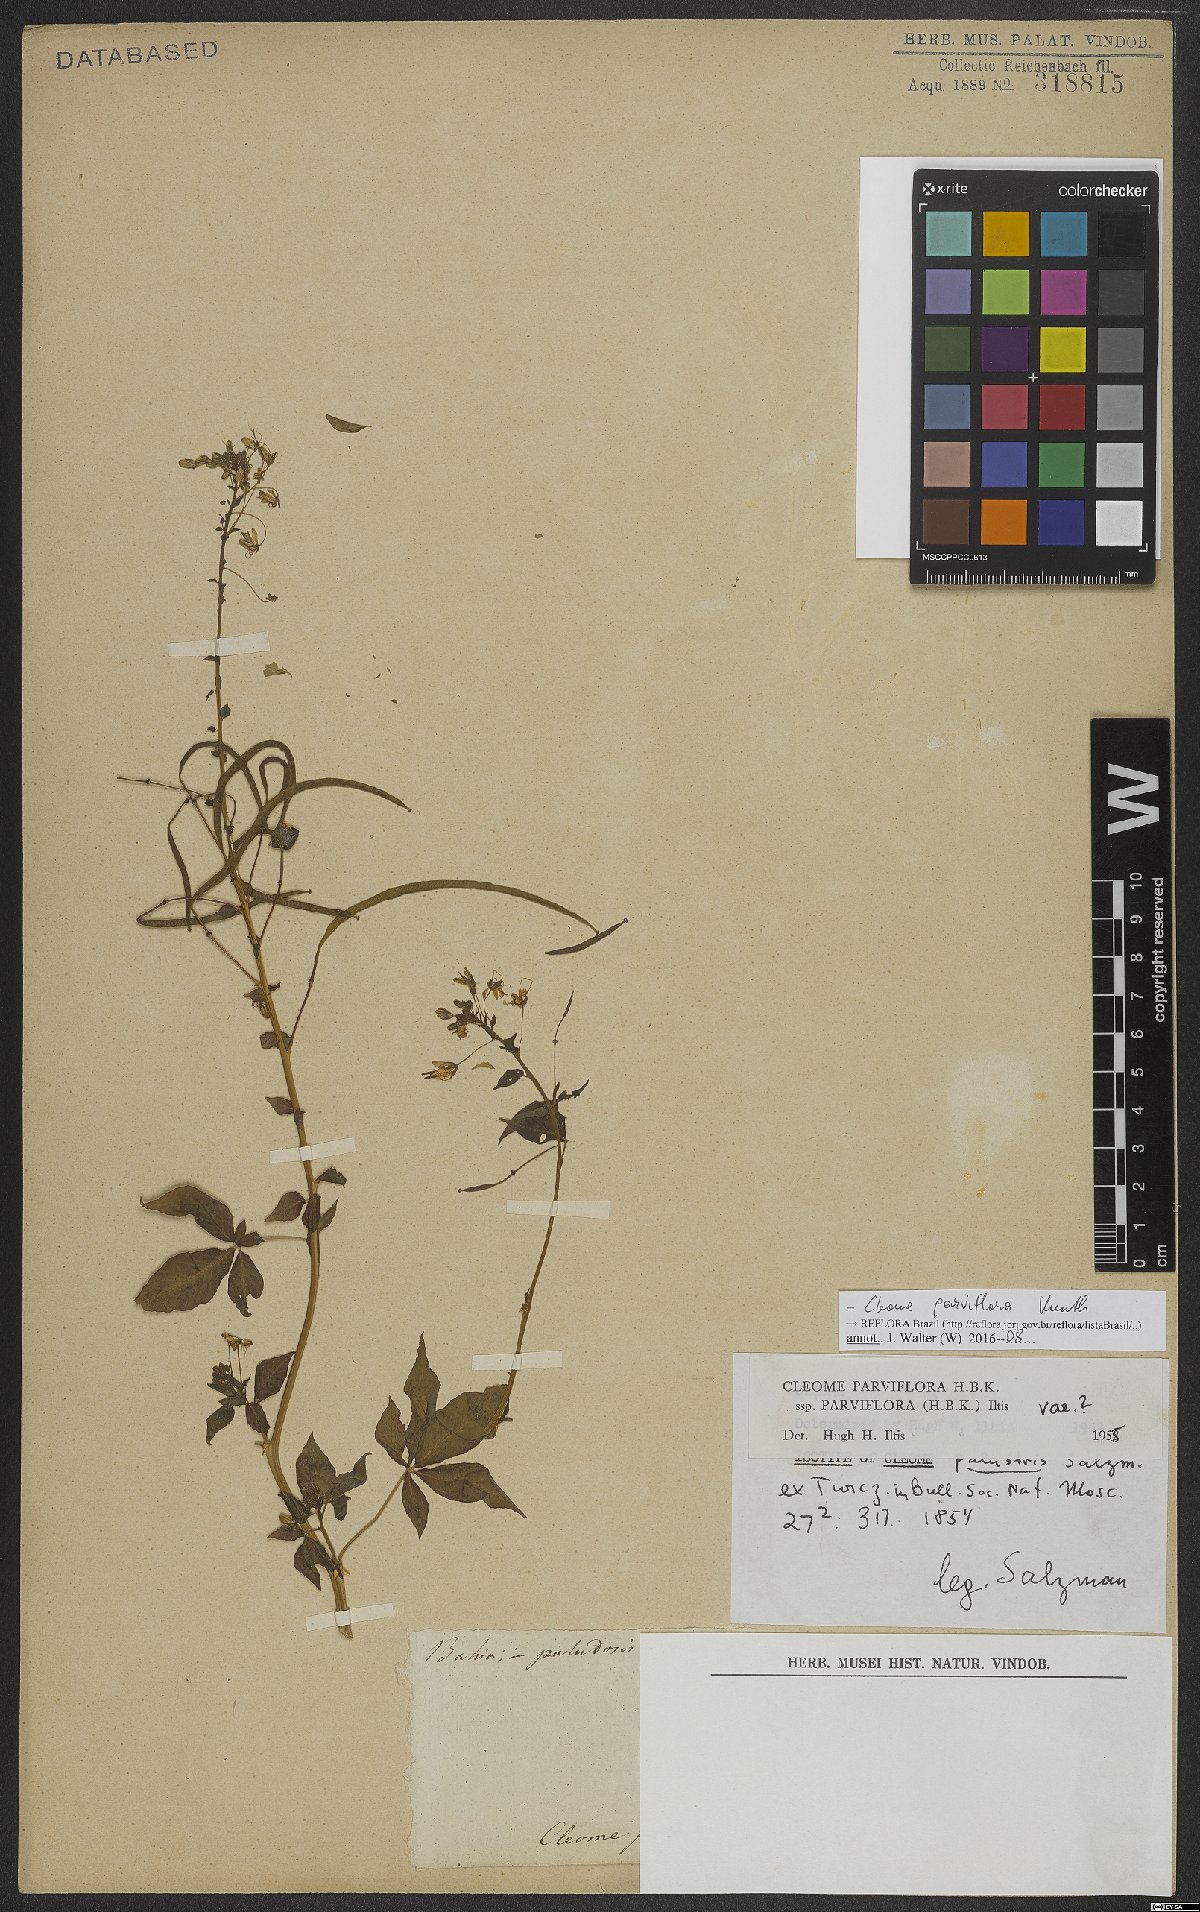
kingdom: Plantae
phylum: Tracheophyta
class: Magnoliopsida
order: Brassicales
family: Cleomaceae
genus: Tarenaya
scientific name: Tarenaya parviflora
